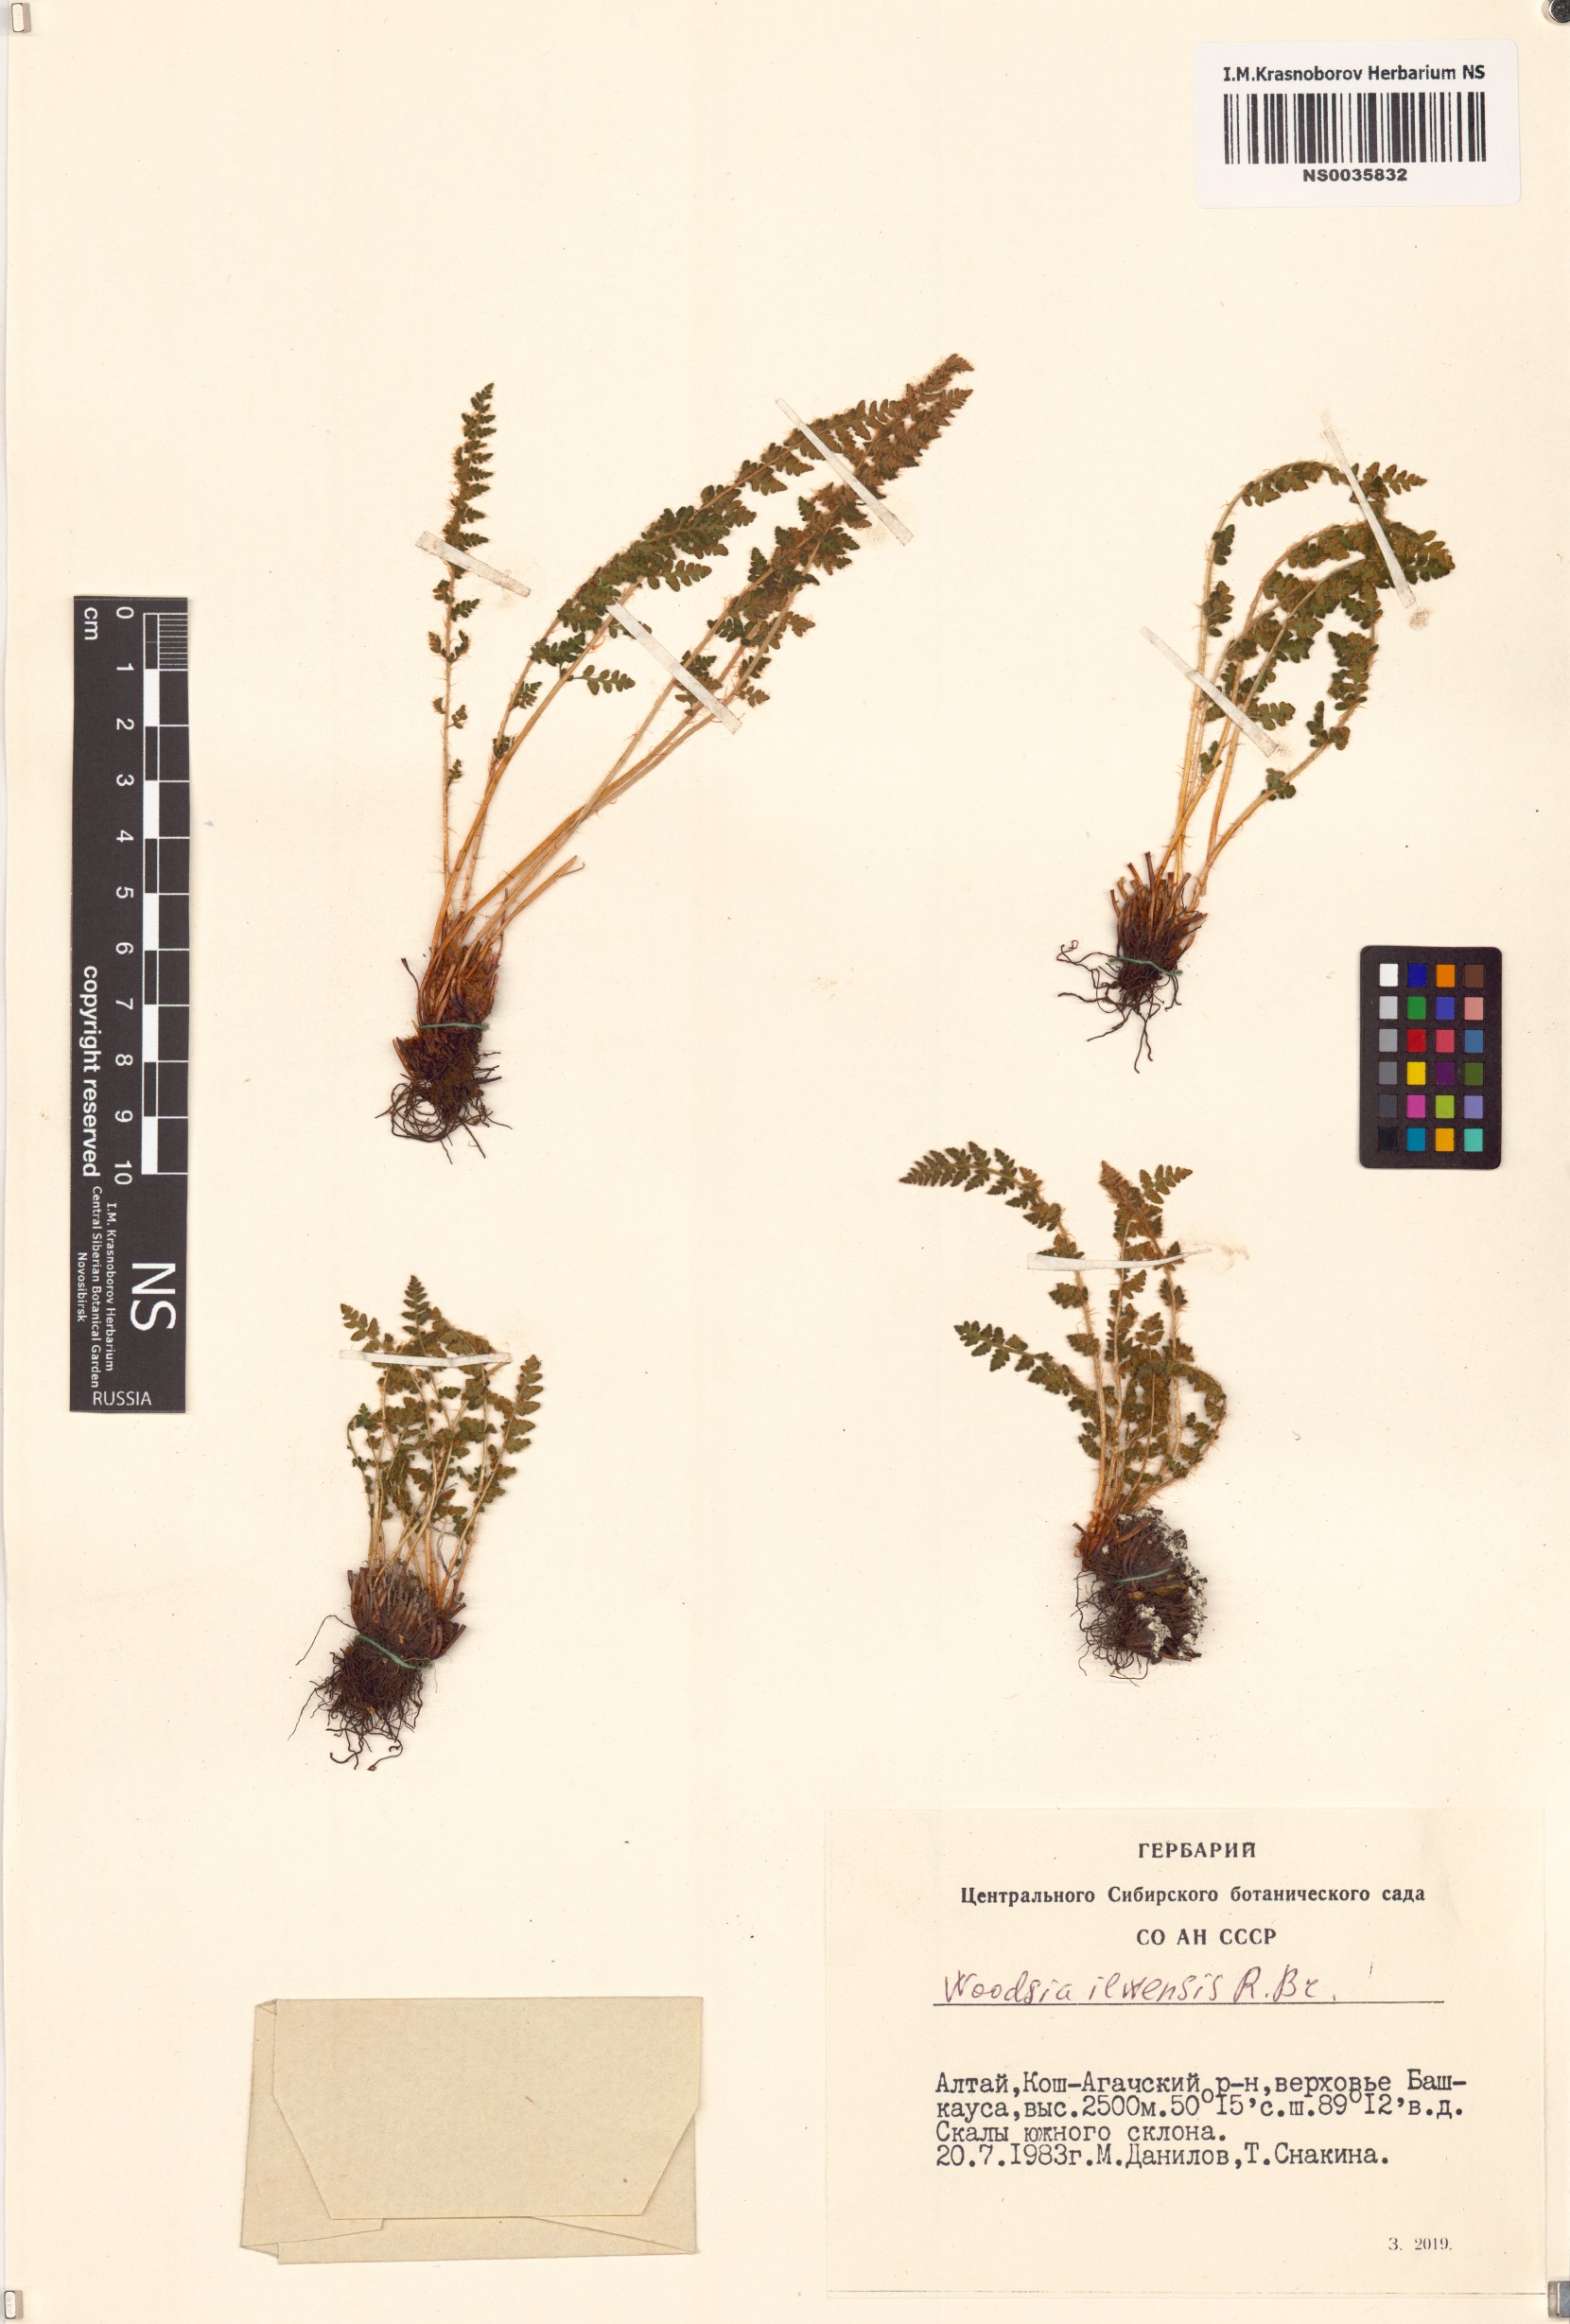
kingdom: Plantae
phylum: Tracheophyta
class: Polypodiopsida
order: Polypodiales
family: Woodsiaceae
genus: Woodsia
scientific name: Woodsia ilvensis
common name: Fragrant woodsia
